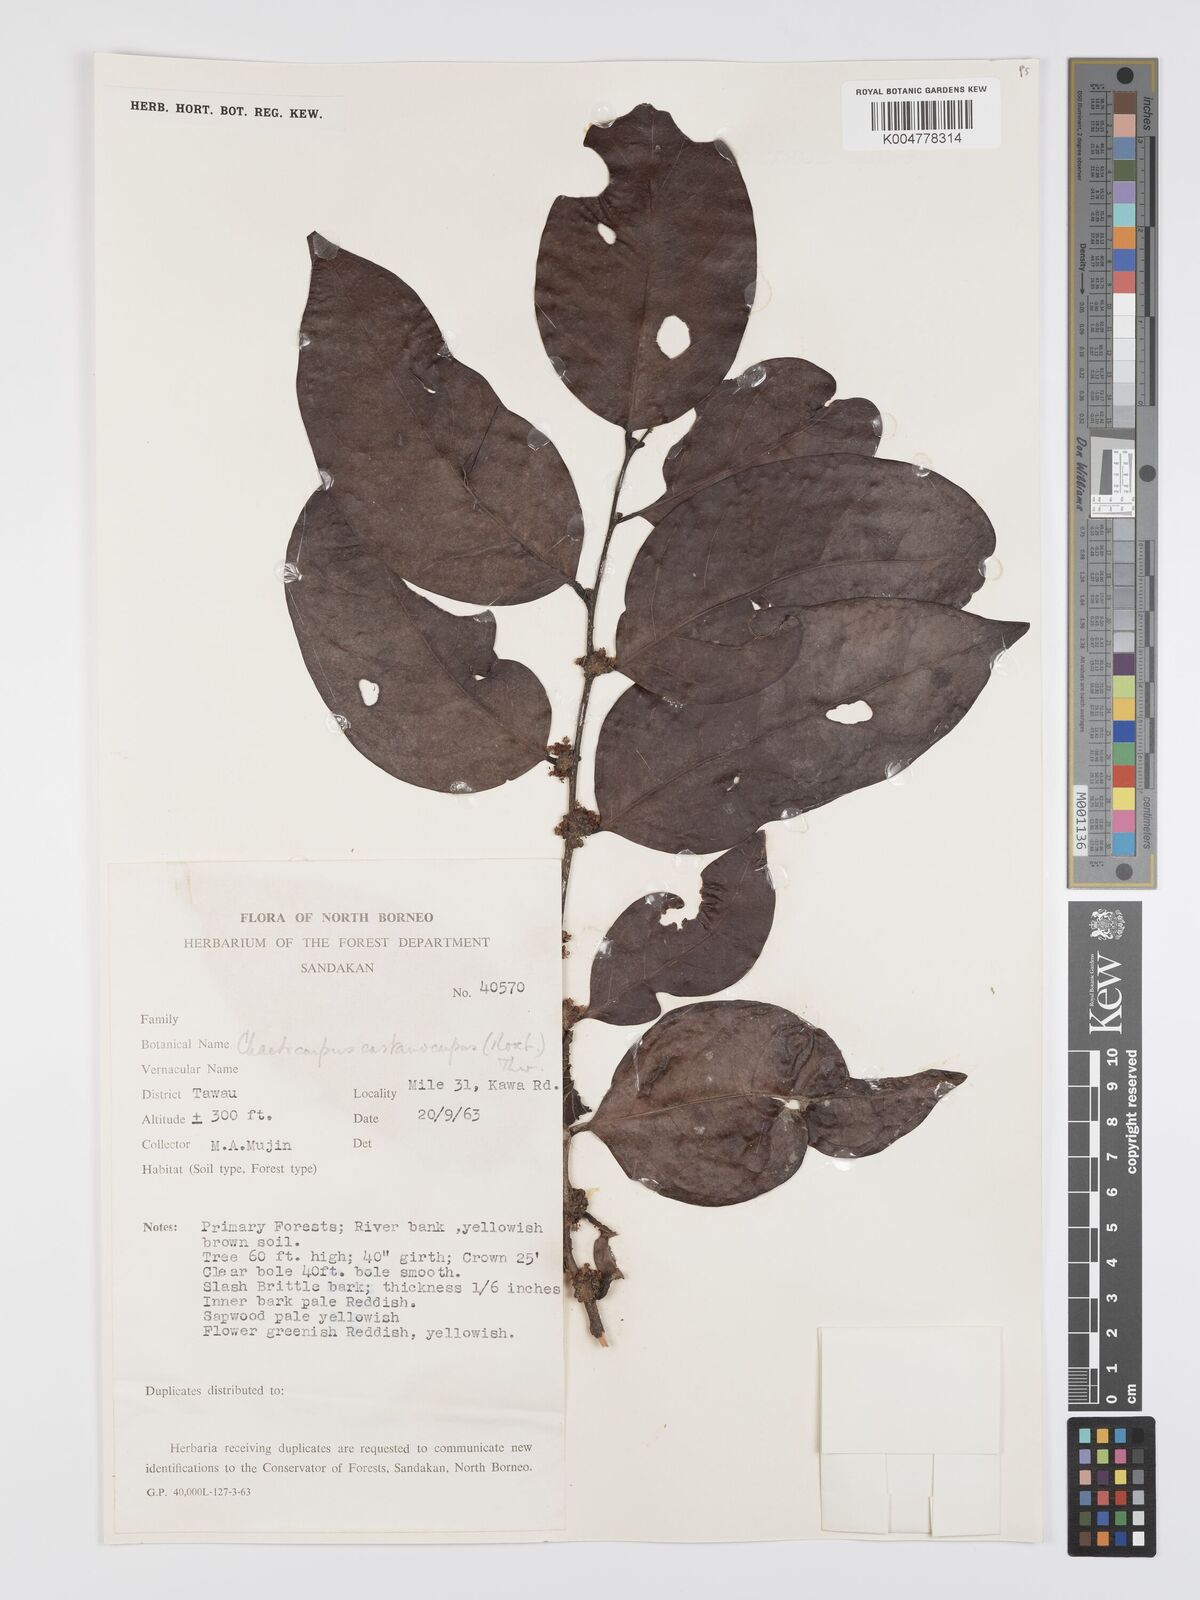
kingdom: Plantae
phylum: Tracheophyta
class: Magnoliopsida
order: Malpighiales
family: Peraceae
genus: Chaetocarpus
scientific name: Chaetocarpus castanocarpus
